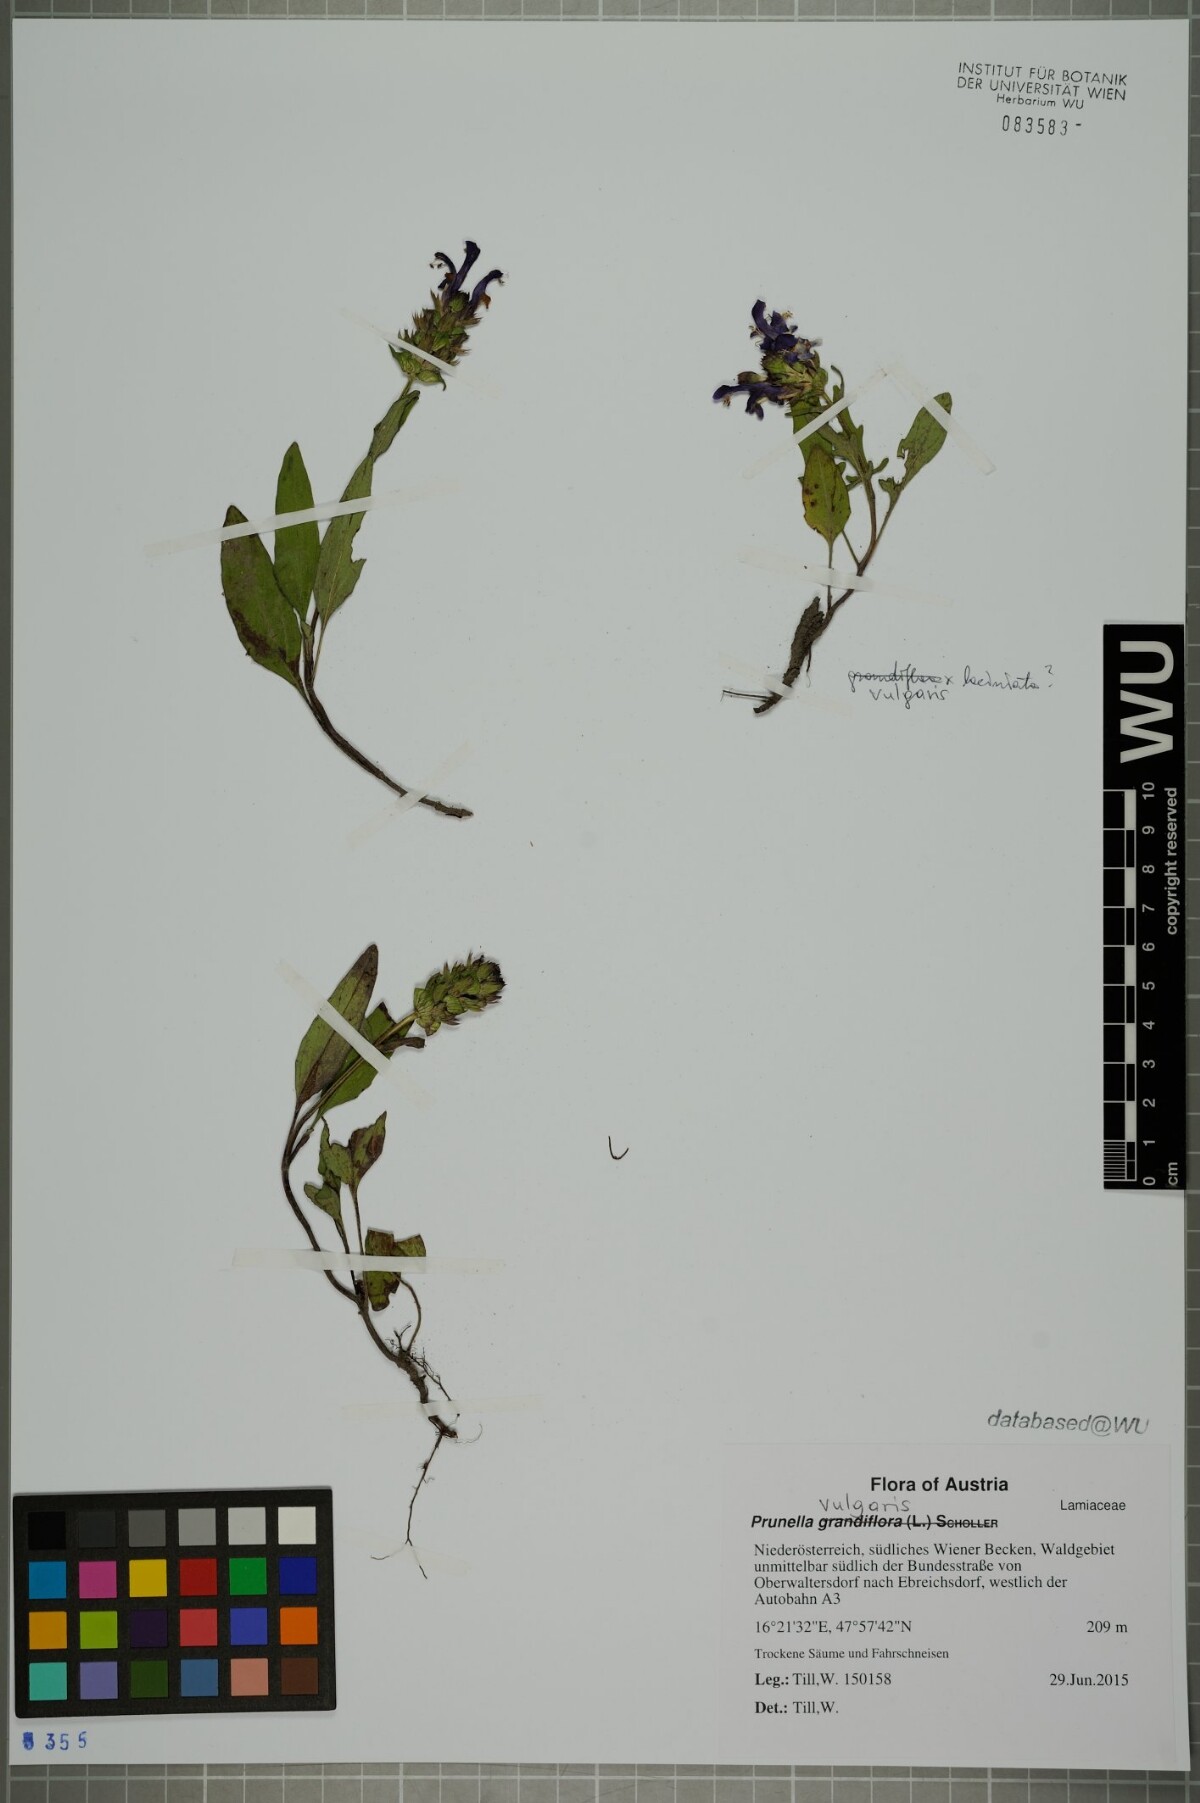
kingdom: Plantae
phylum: Tracheophyta
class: Magnoliopsida
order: Lamiales
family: Lamiaceae
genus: Prunella
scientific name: Prunella vulgaris
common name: Heal-all
